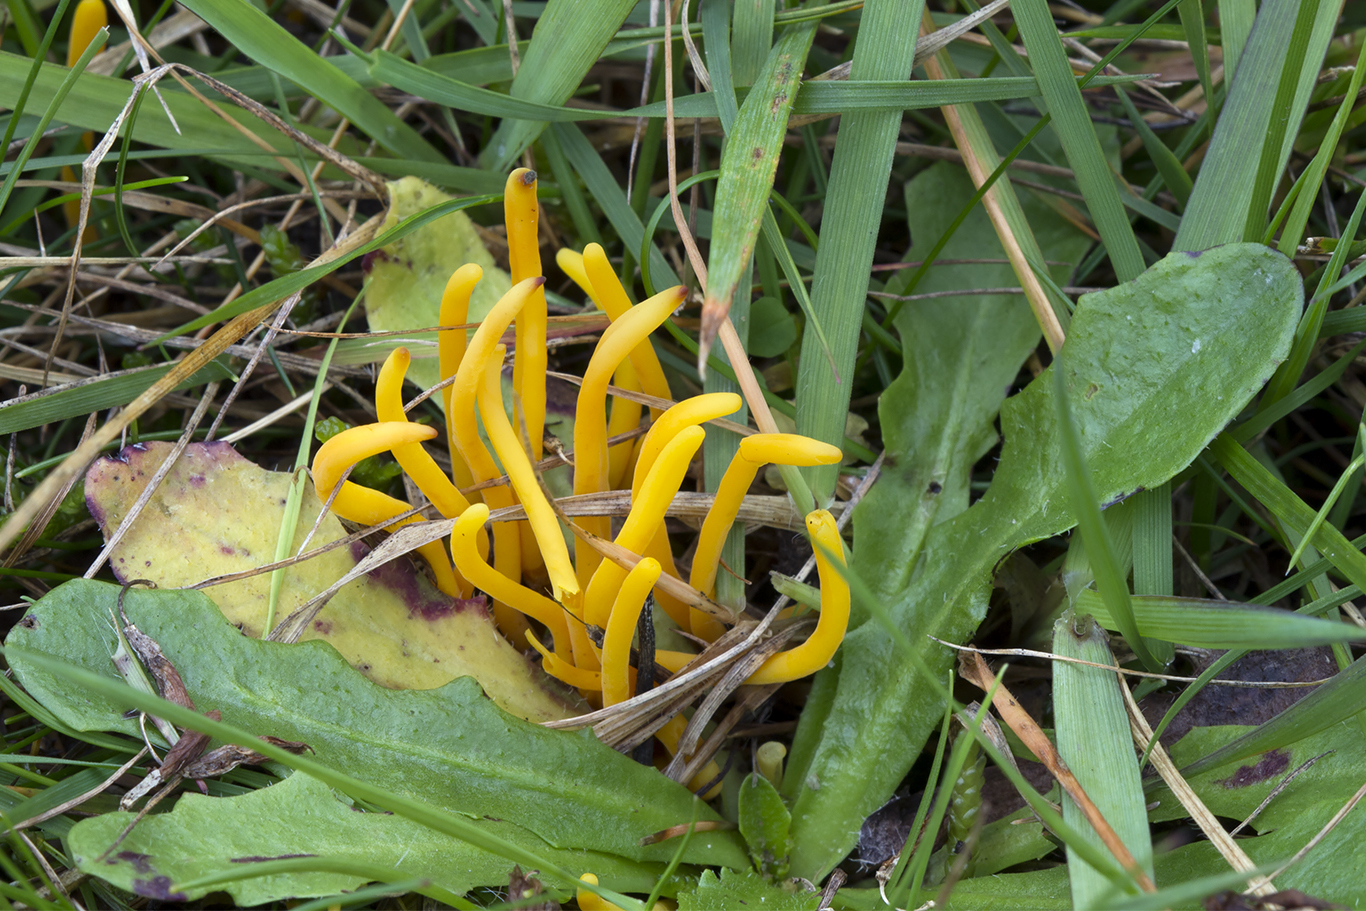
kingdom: Fungi
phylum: Basidiomycota
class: Agaricomycetes
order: Agaricales
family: Clavariaceae
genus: Clavulinopsis
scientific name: Clavulinopsis helvola
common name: orangegul køllesvamp
